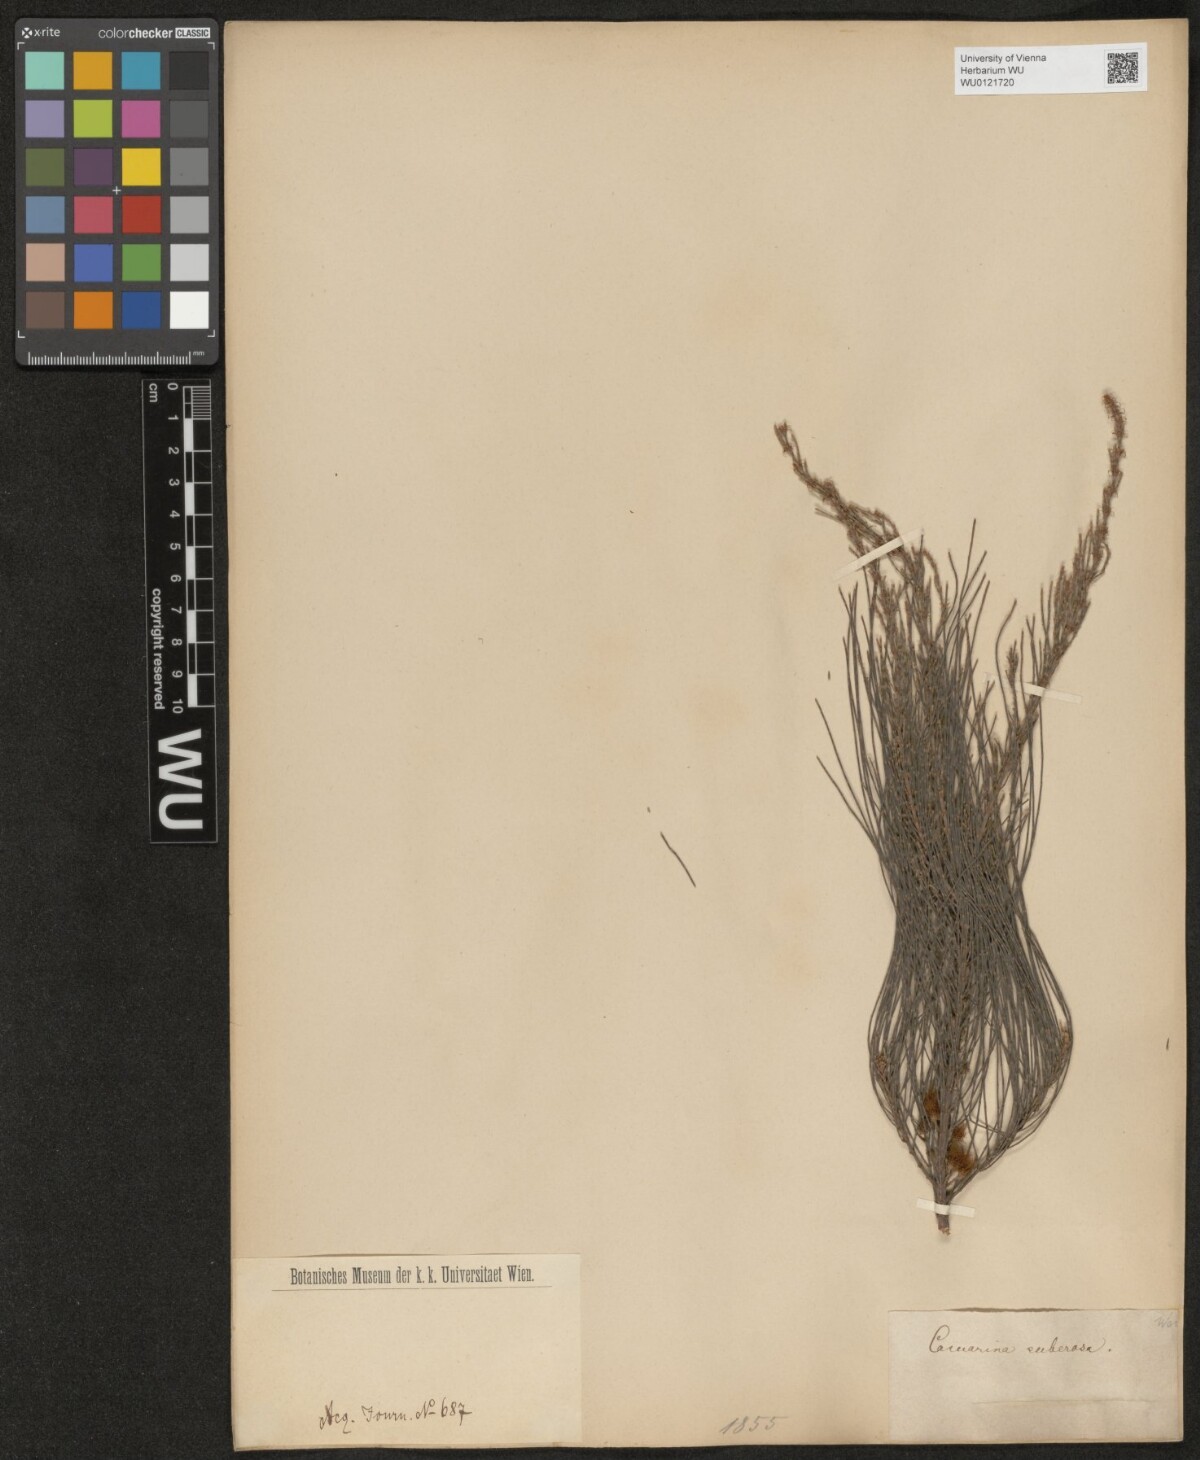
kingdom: Plantae
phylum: Tracheophyta
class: Magnoliopsida
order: Fagales
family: Casuarinaceae
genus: Allocasuarina
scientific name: Allocasuarina littoralis
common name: Black she-oak
